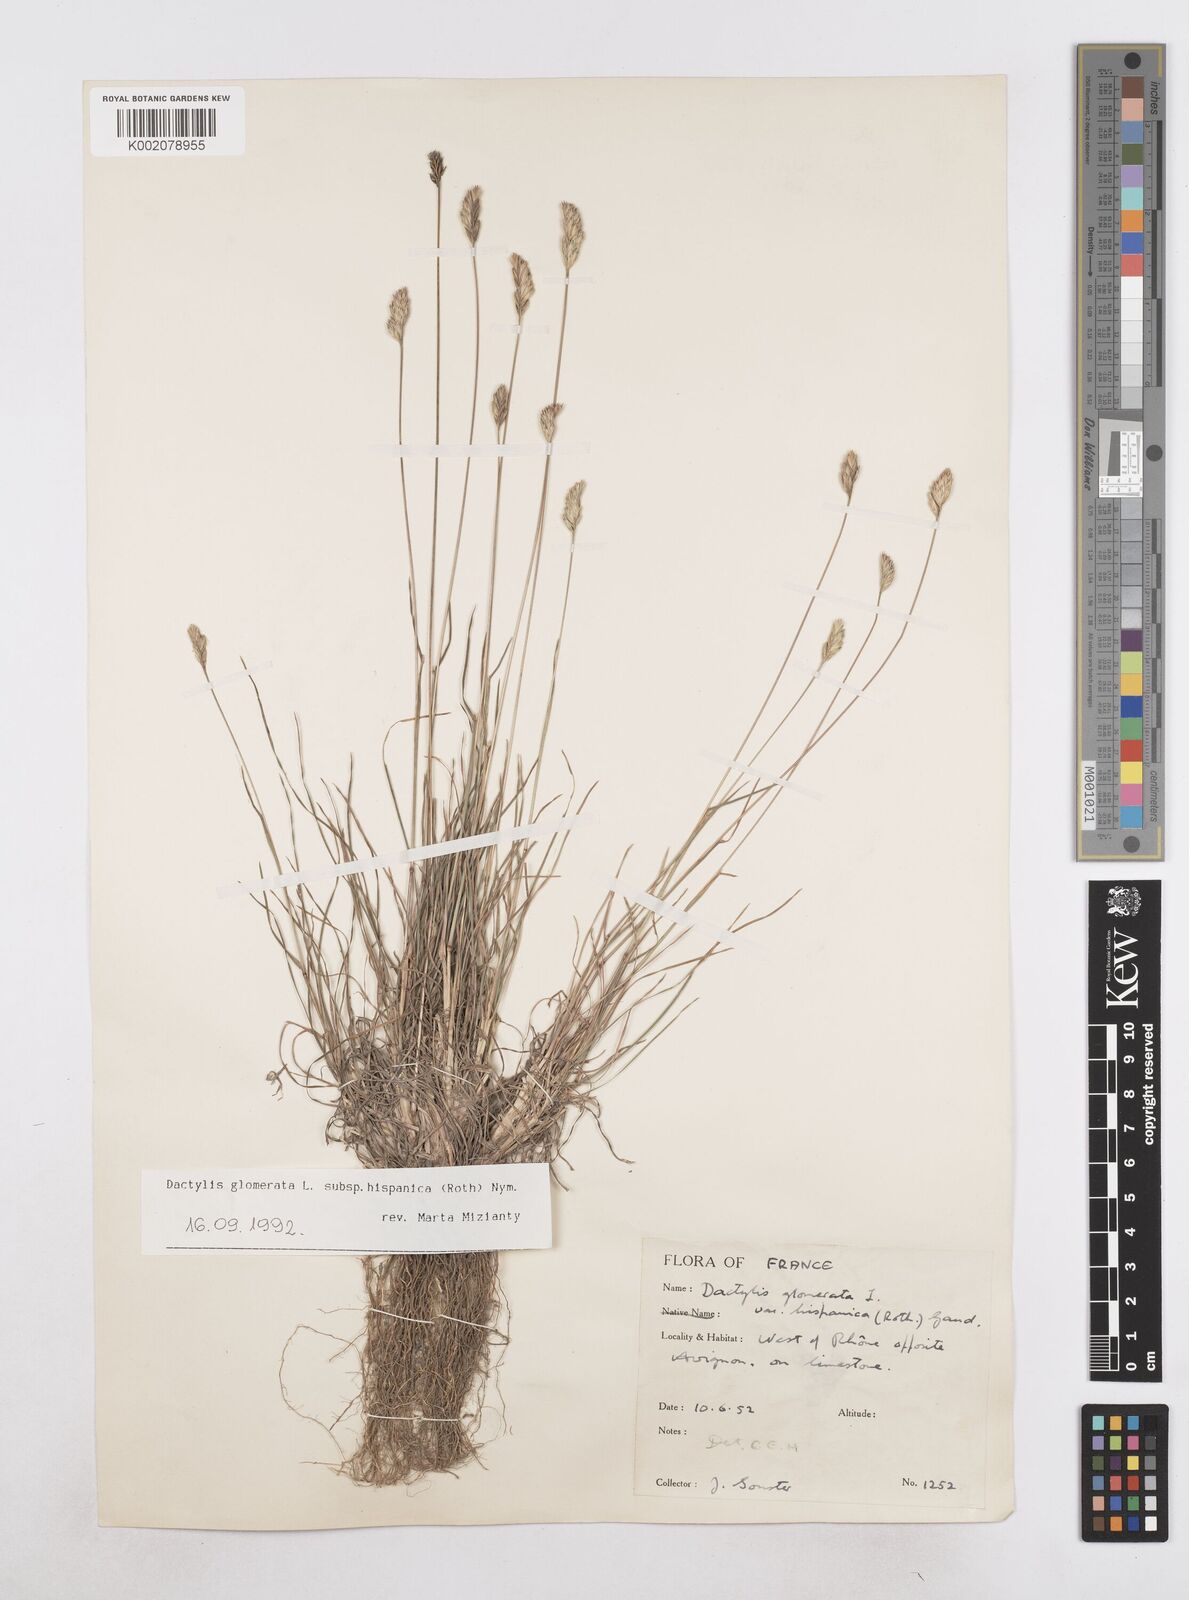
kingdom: Plantae
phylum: Tracheophyta
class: Liliopsida
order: Poales
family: Poaceae
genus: Dactylis
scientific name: Dactylis glomerata
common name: Orchardgrass
